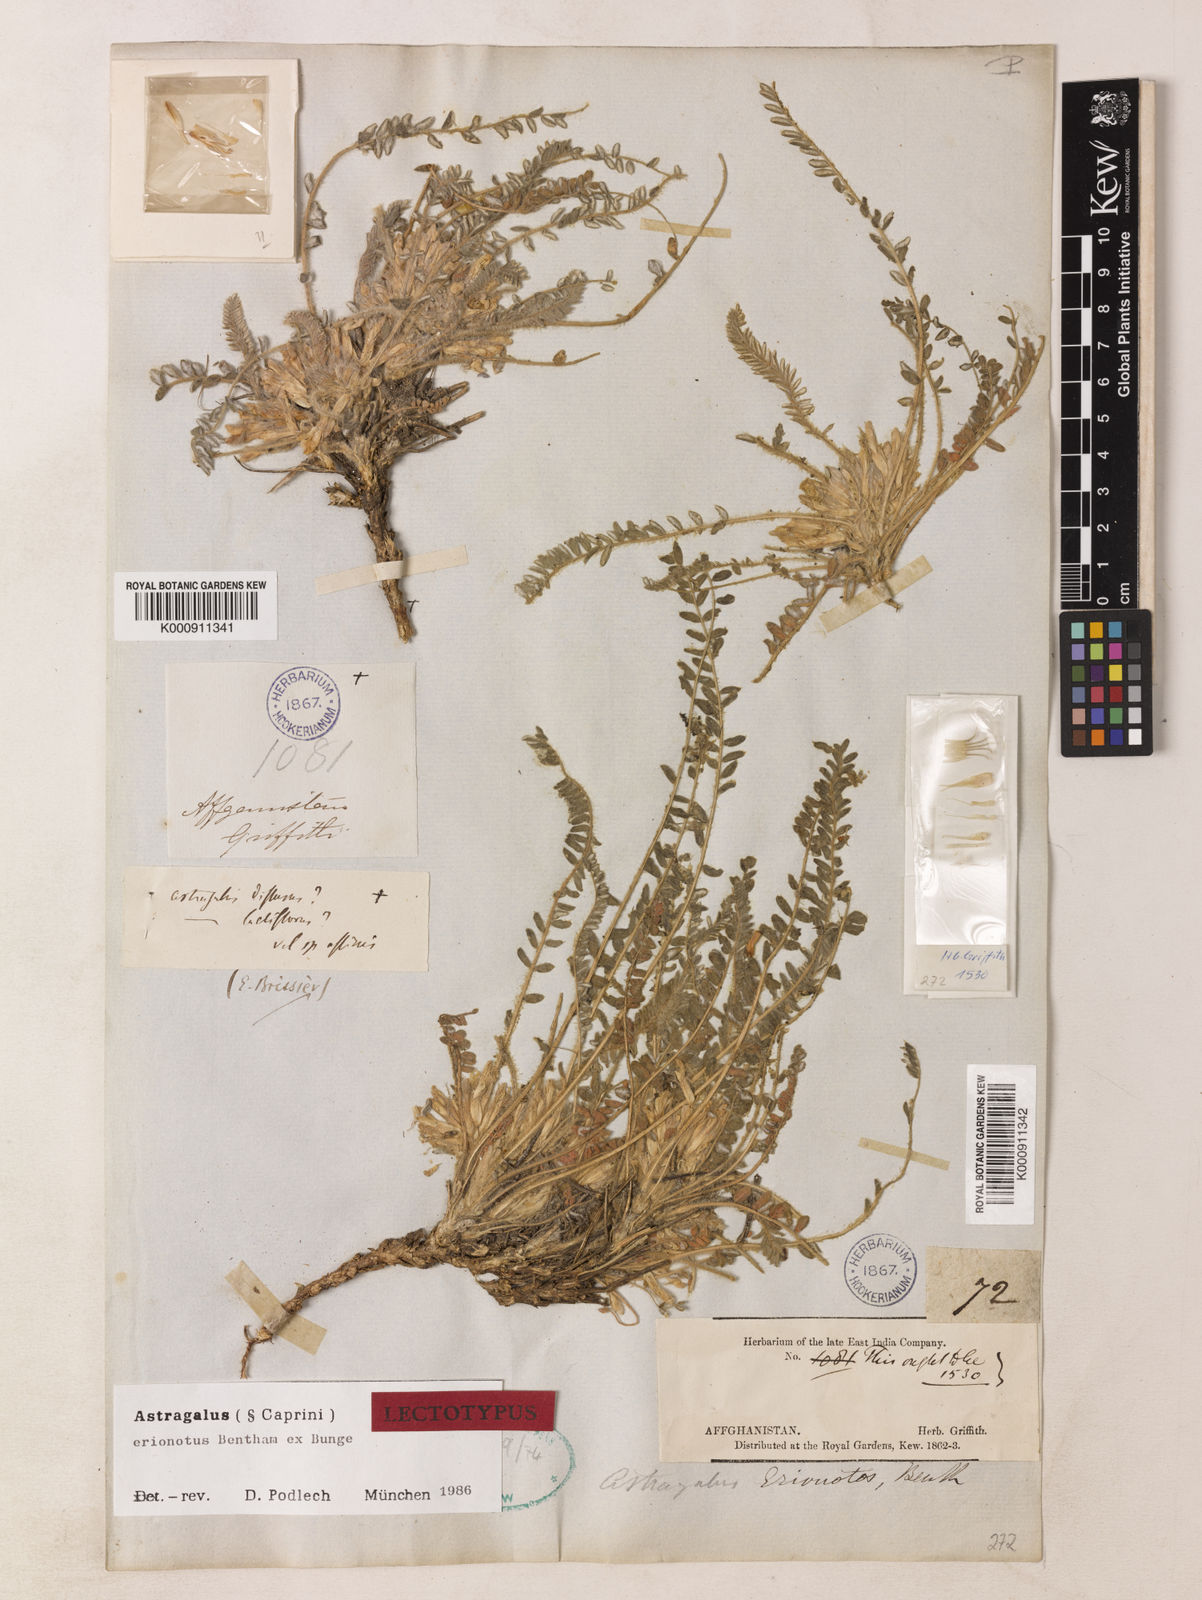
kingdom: Plantae
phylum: Tracheophyta
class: Magnoliopsida
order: Fabales
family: Fabaceae
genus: Astragalus
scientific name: Astragalus erionotus
